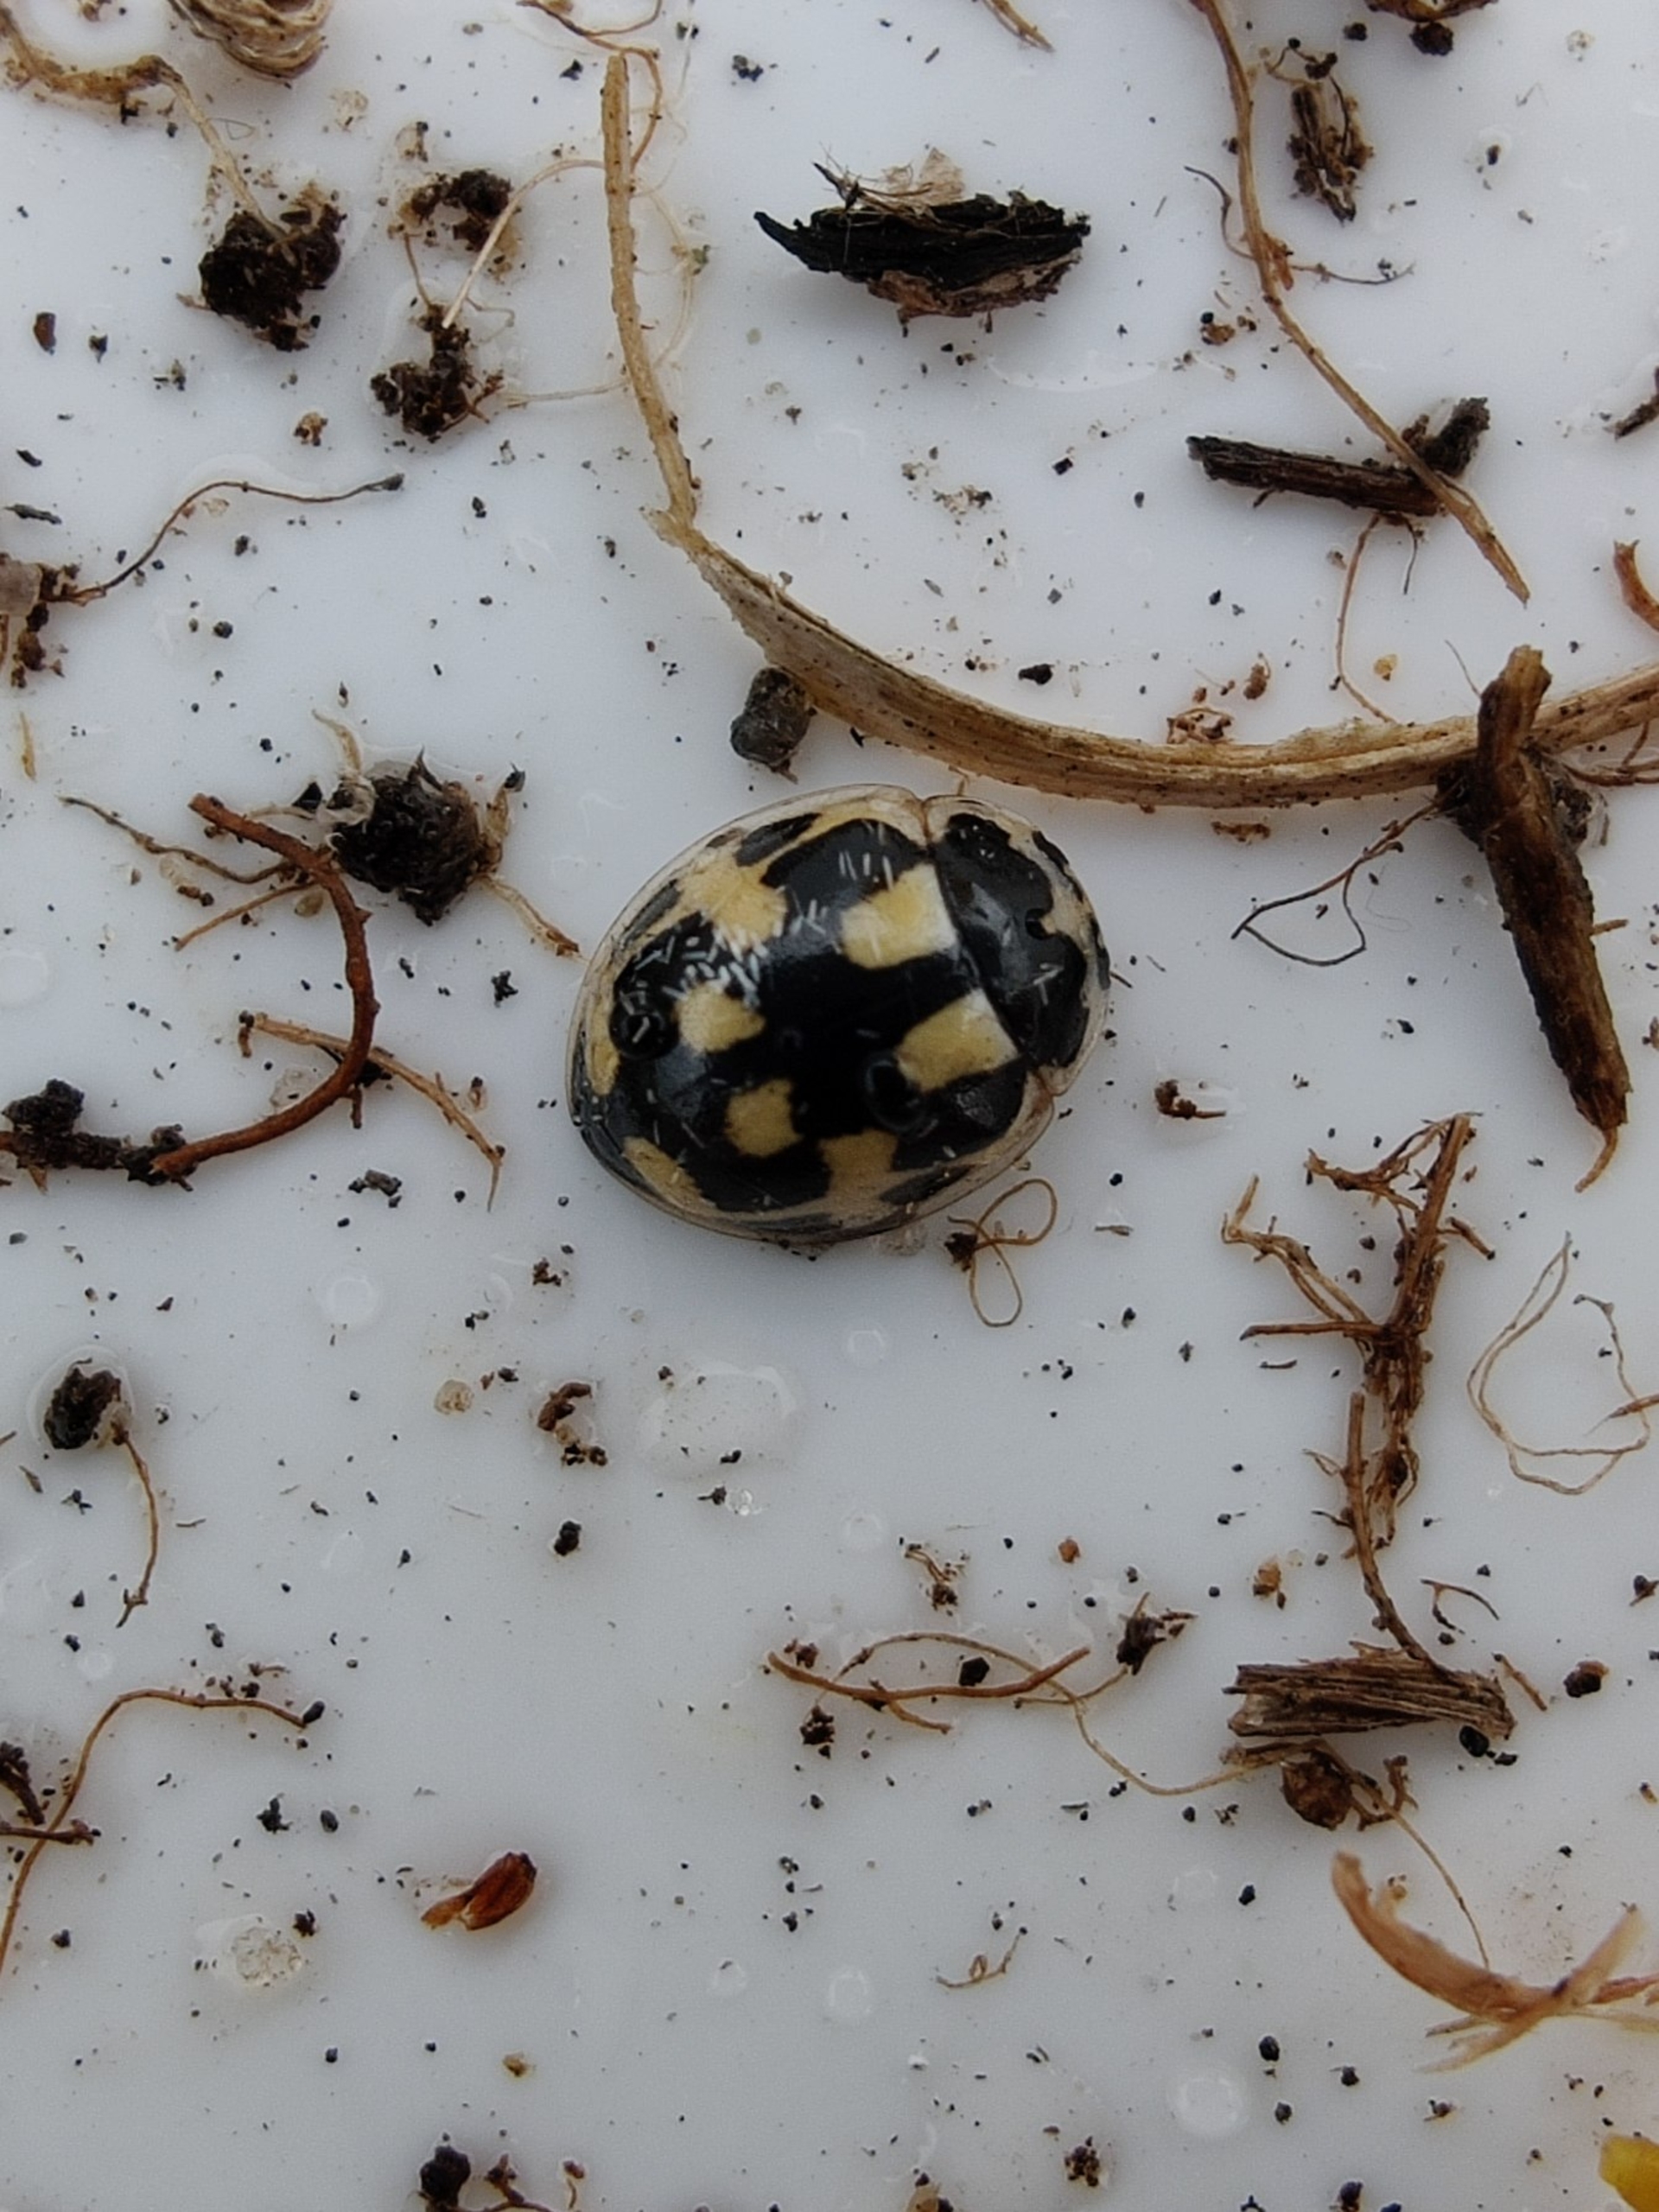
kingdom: Animalia
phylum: Arthropoda
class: Insecta
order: Coleoptera
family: Coccinellidae
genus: Propylaea
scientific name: Propylaea quatuordecimpunctata
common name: Skakbræt
